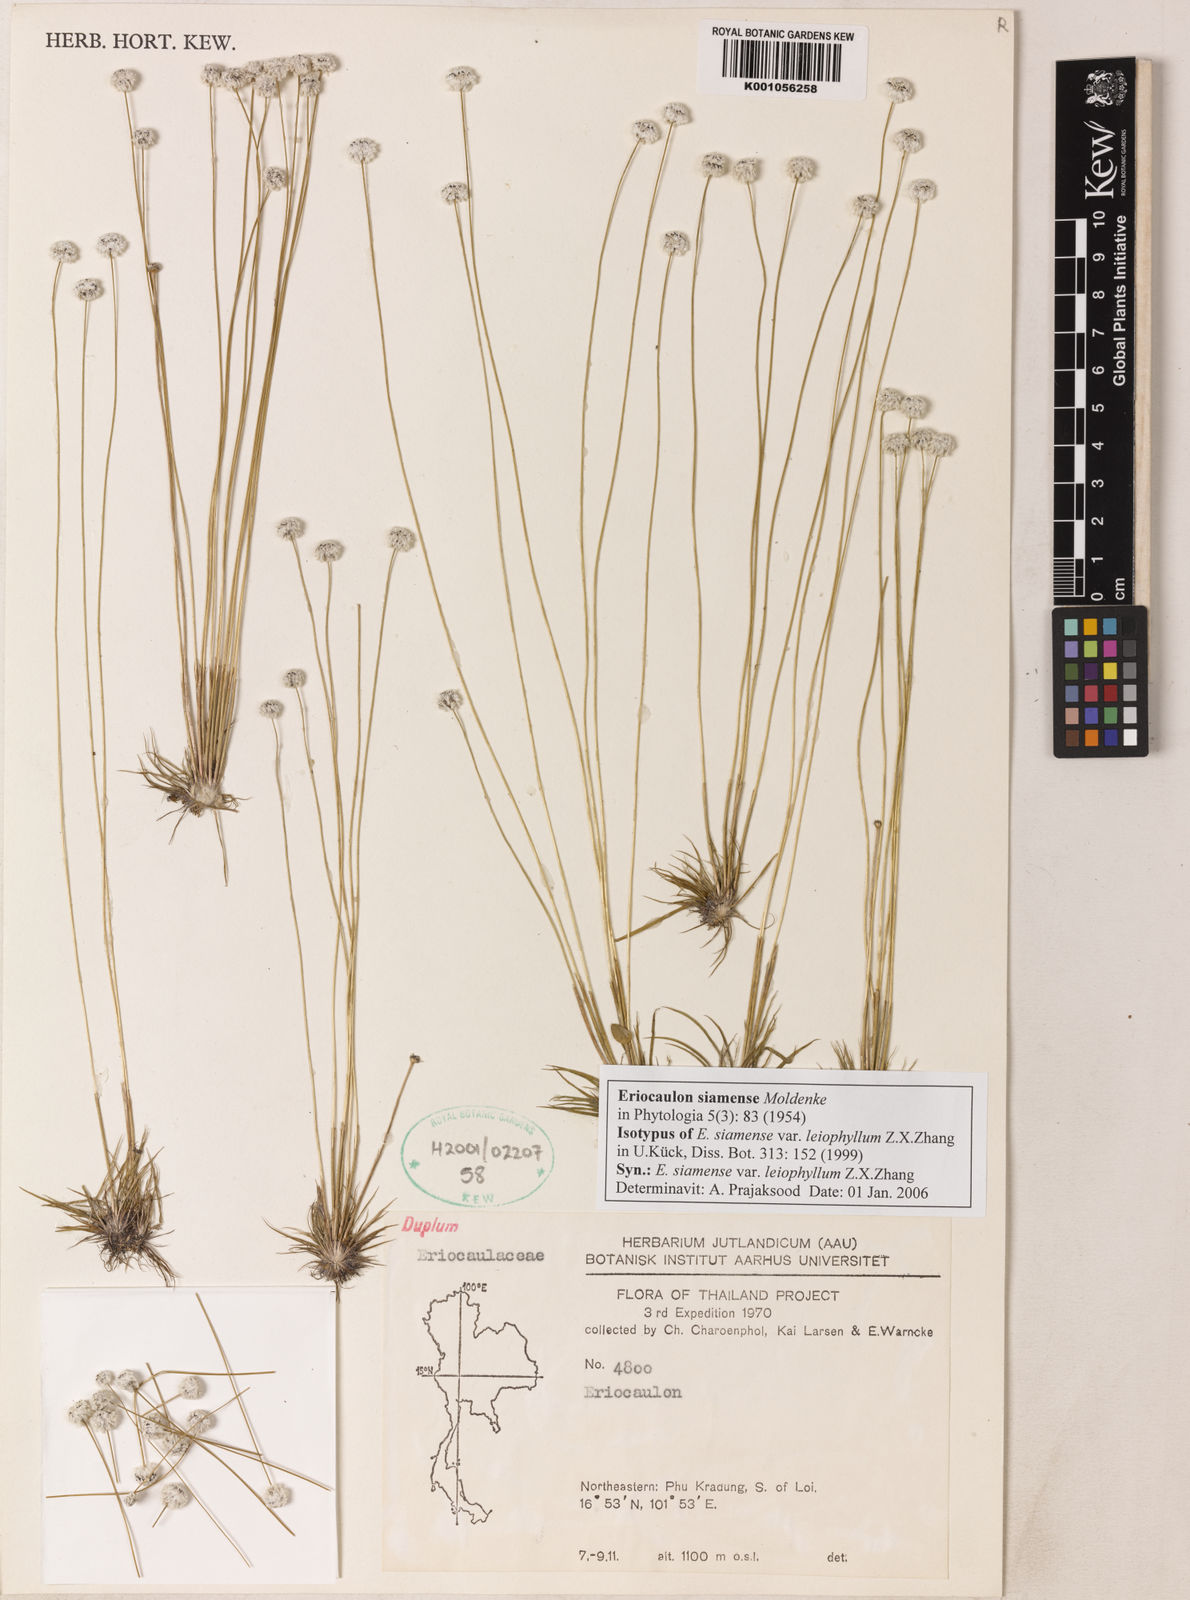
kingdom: Plantae
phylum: Tracheophyta
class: Liliopsida
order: Poales
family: Eriocaulaceae
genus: Eriocaulon
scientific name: Eriocaulon siamense
